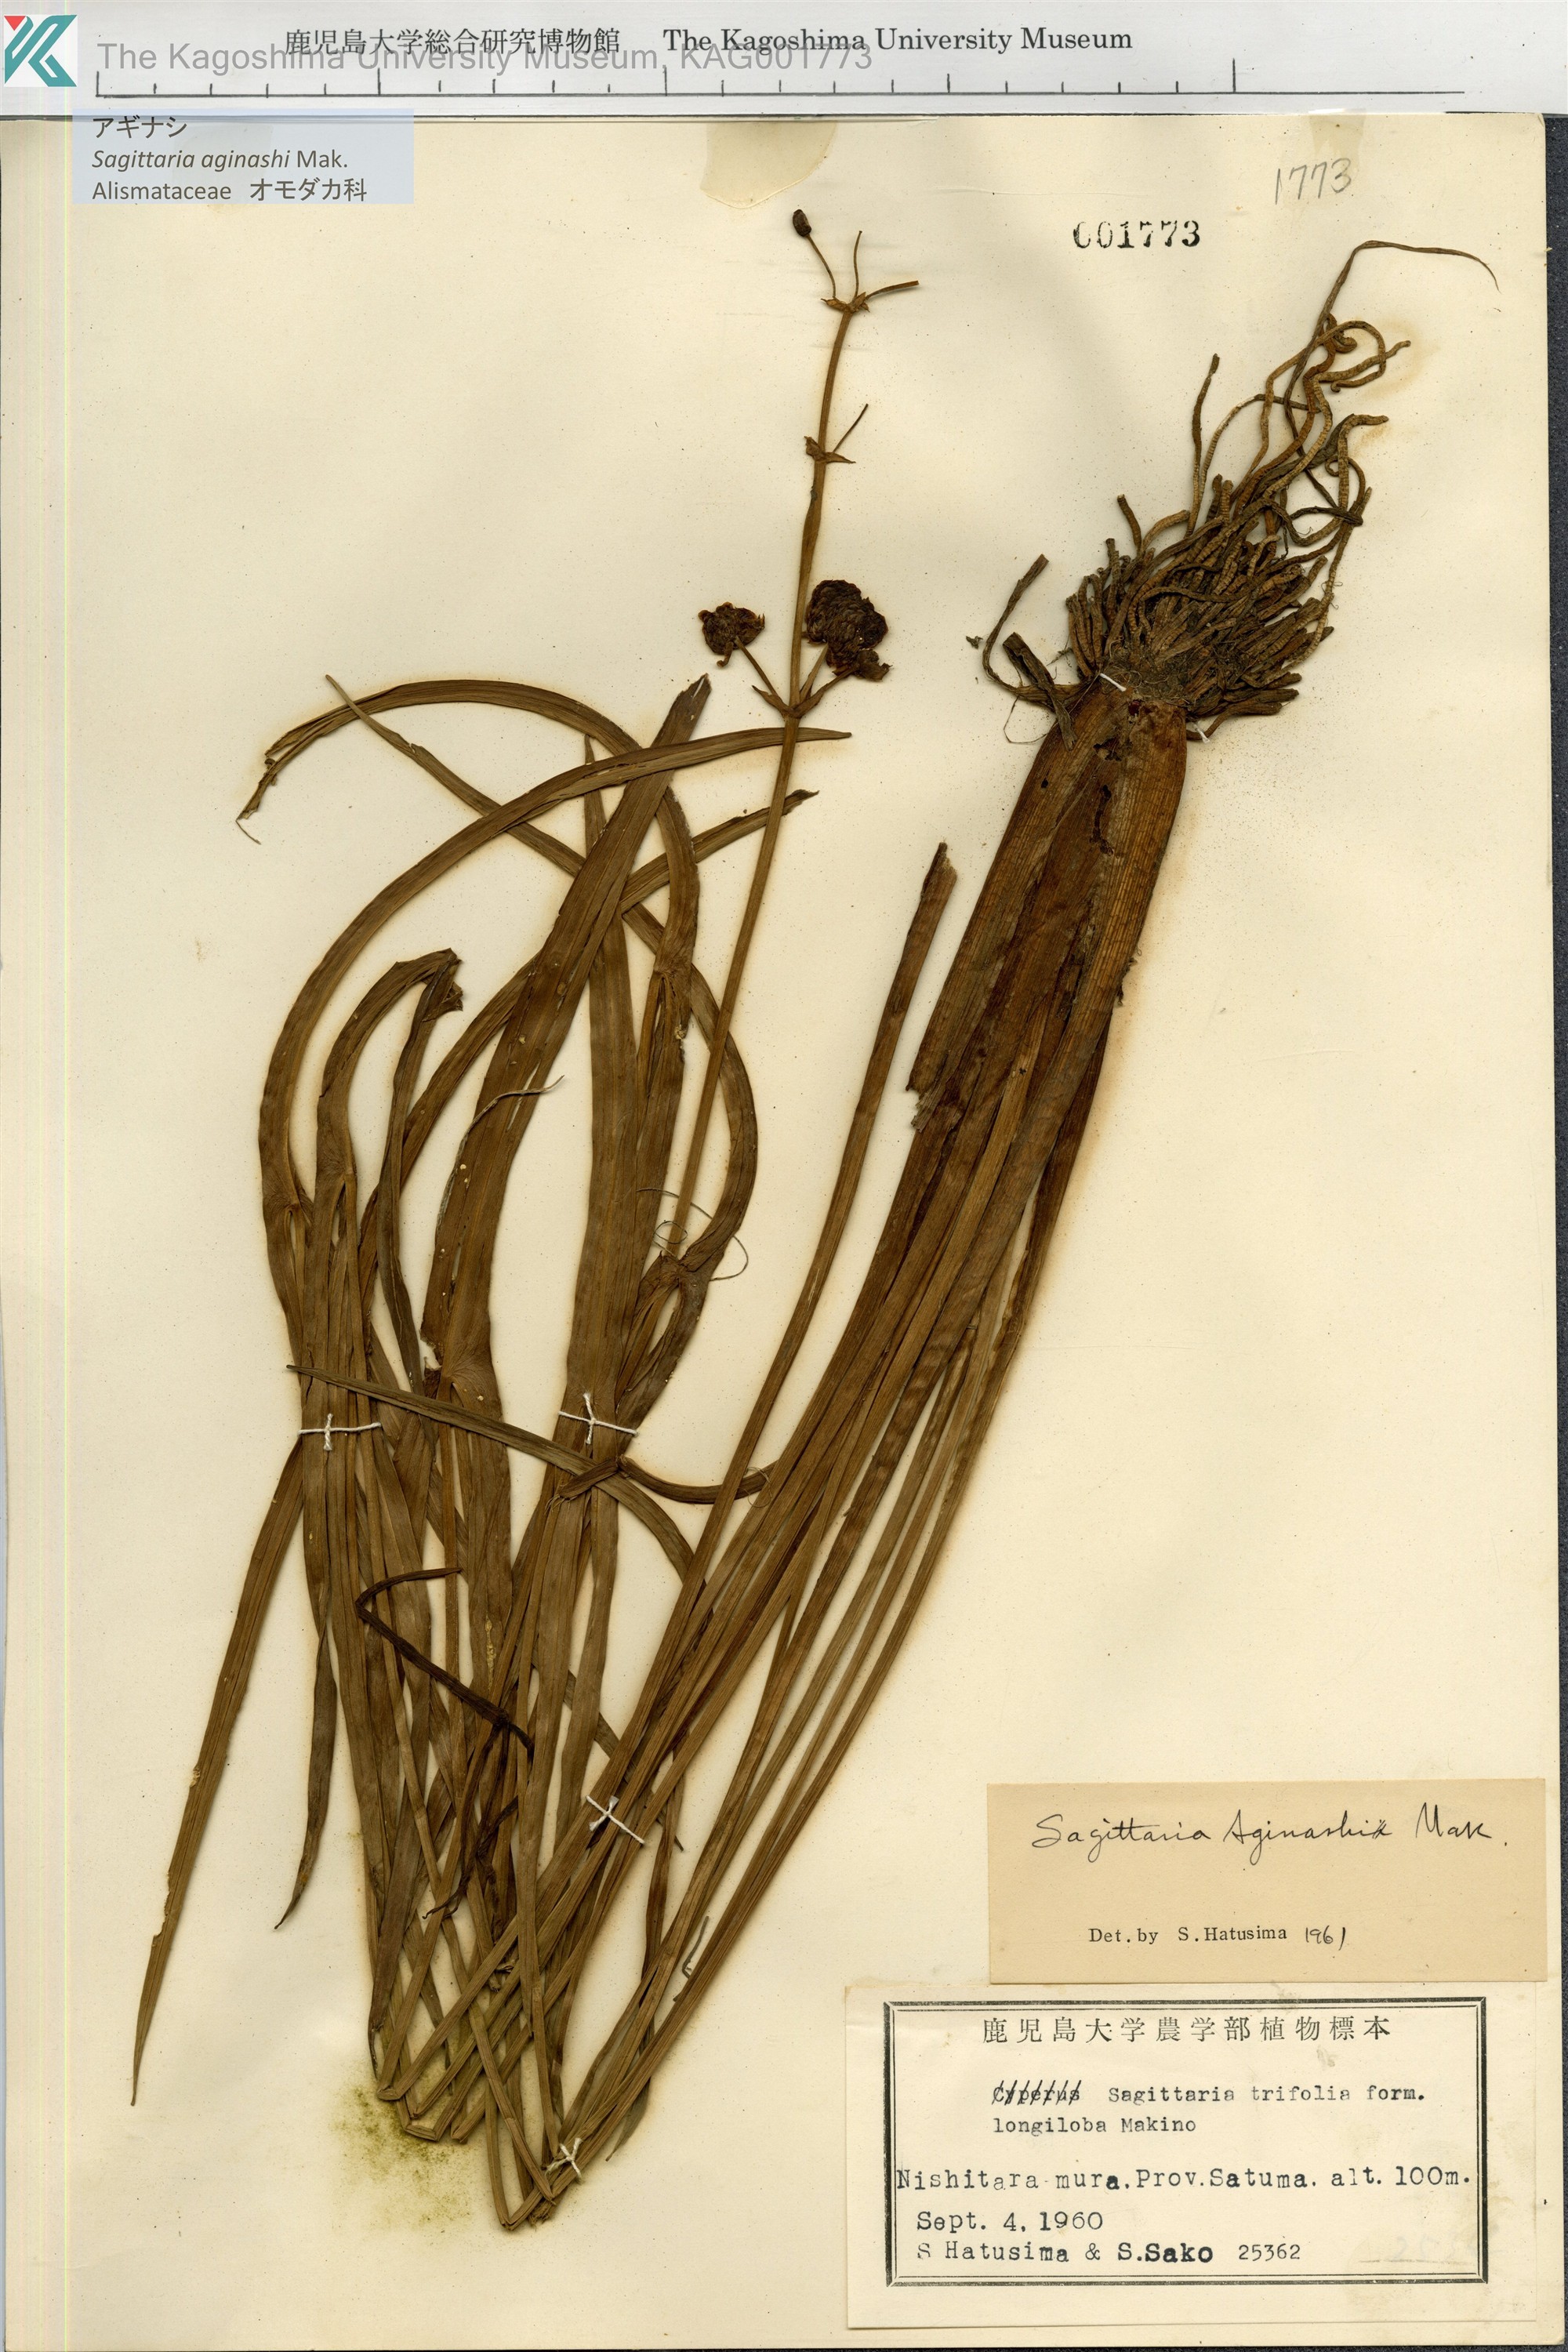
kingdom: Plantae
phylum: Tracheophyta
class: Liliopsida
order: Alismatales
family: Alismataceae
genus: Sagittaria
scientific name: Sagittaria aginashi
